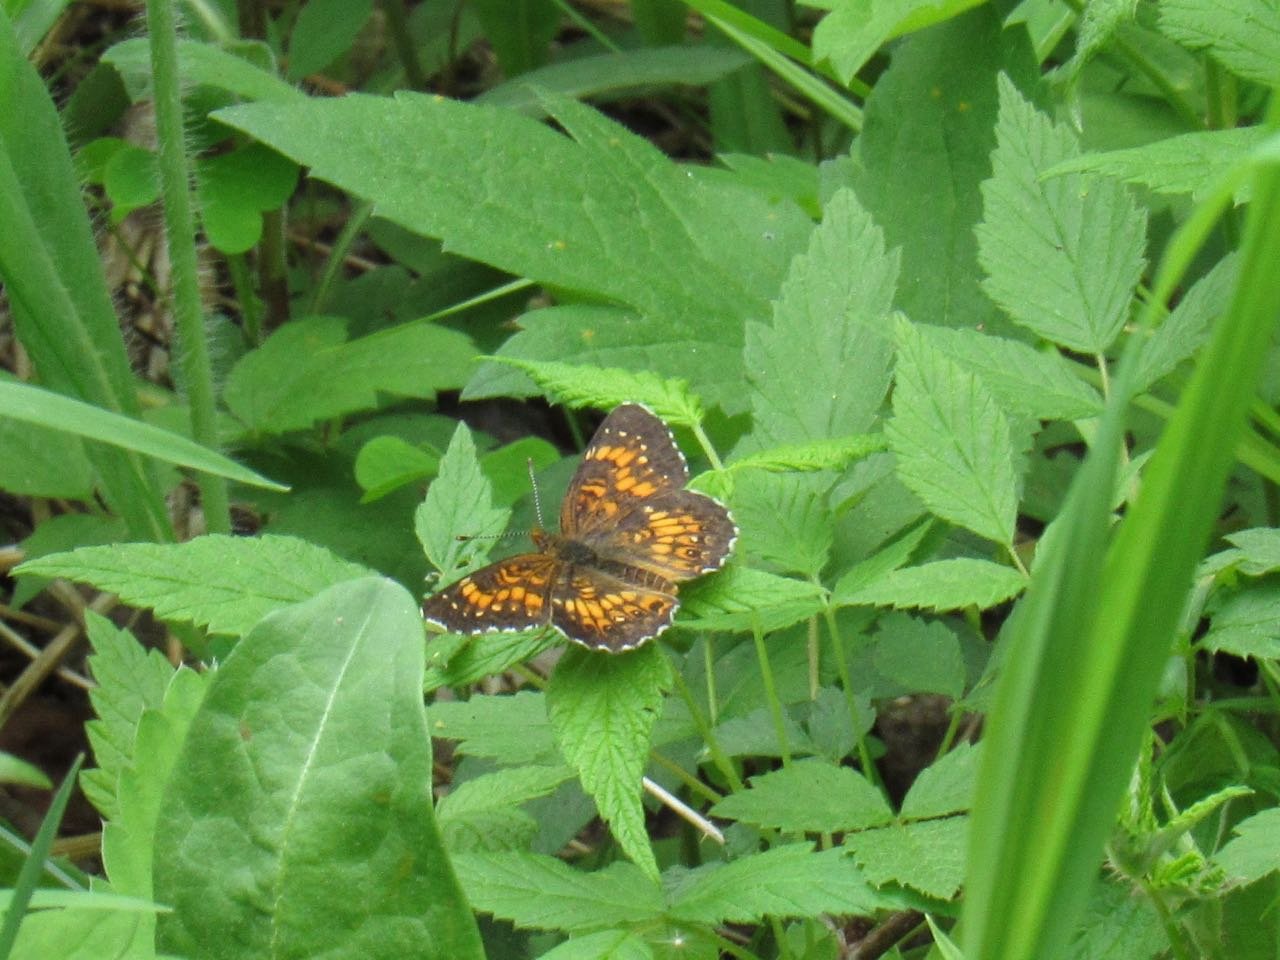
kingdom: Animalia
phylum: Arthropoda
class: Insecta
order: Lepidoptera
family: Nymphalidae
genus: Chlosyne
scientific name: Chlosyne harrisii
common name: Harris's Checkerspot
